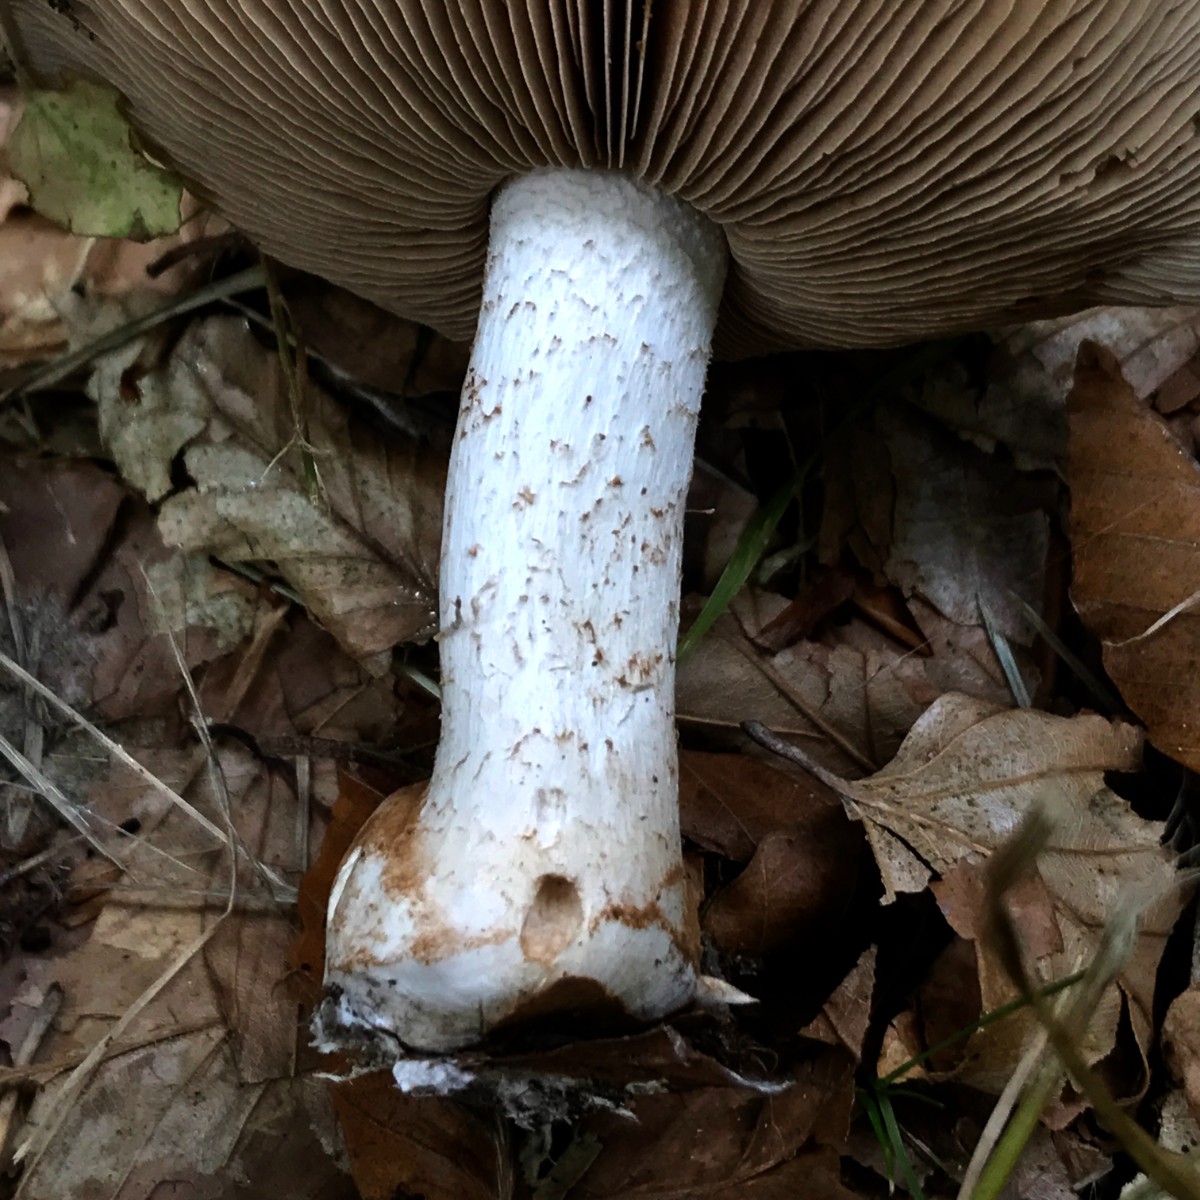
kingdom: Fungi
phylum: Basidiomycota
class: Agaricomycetes
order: Agaricales
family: Hymenogastraceae
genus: Hebeloma
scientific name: Hebeloma sinapizans
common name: ræddike-tåreblad
